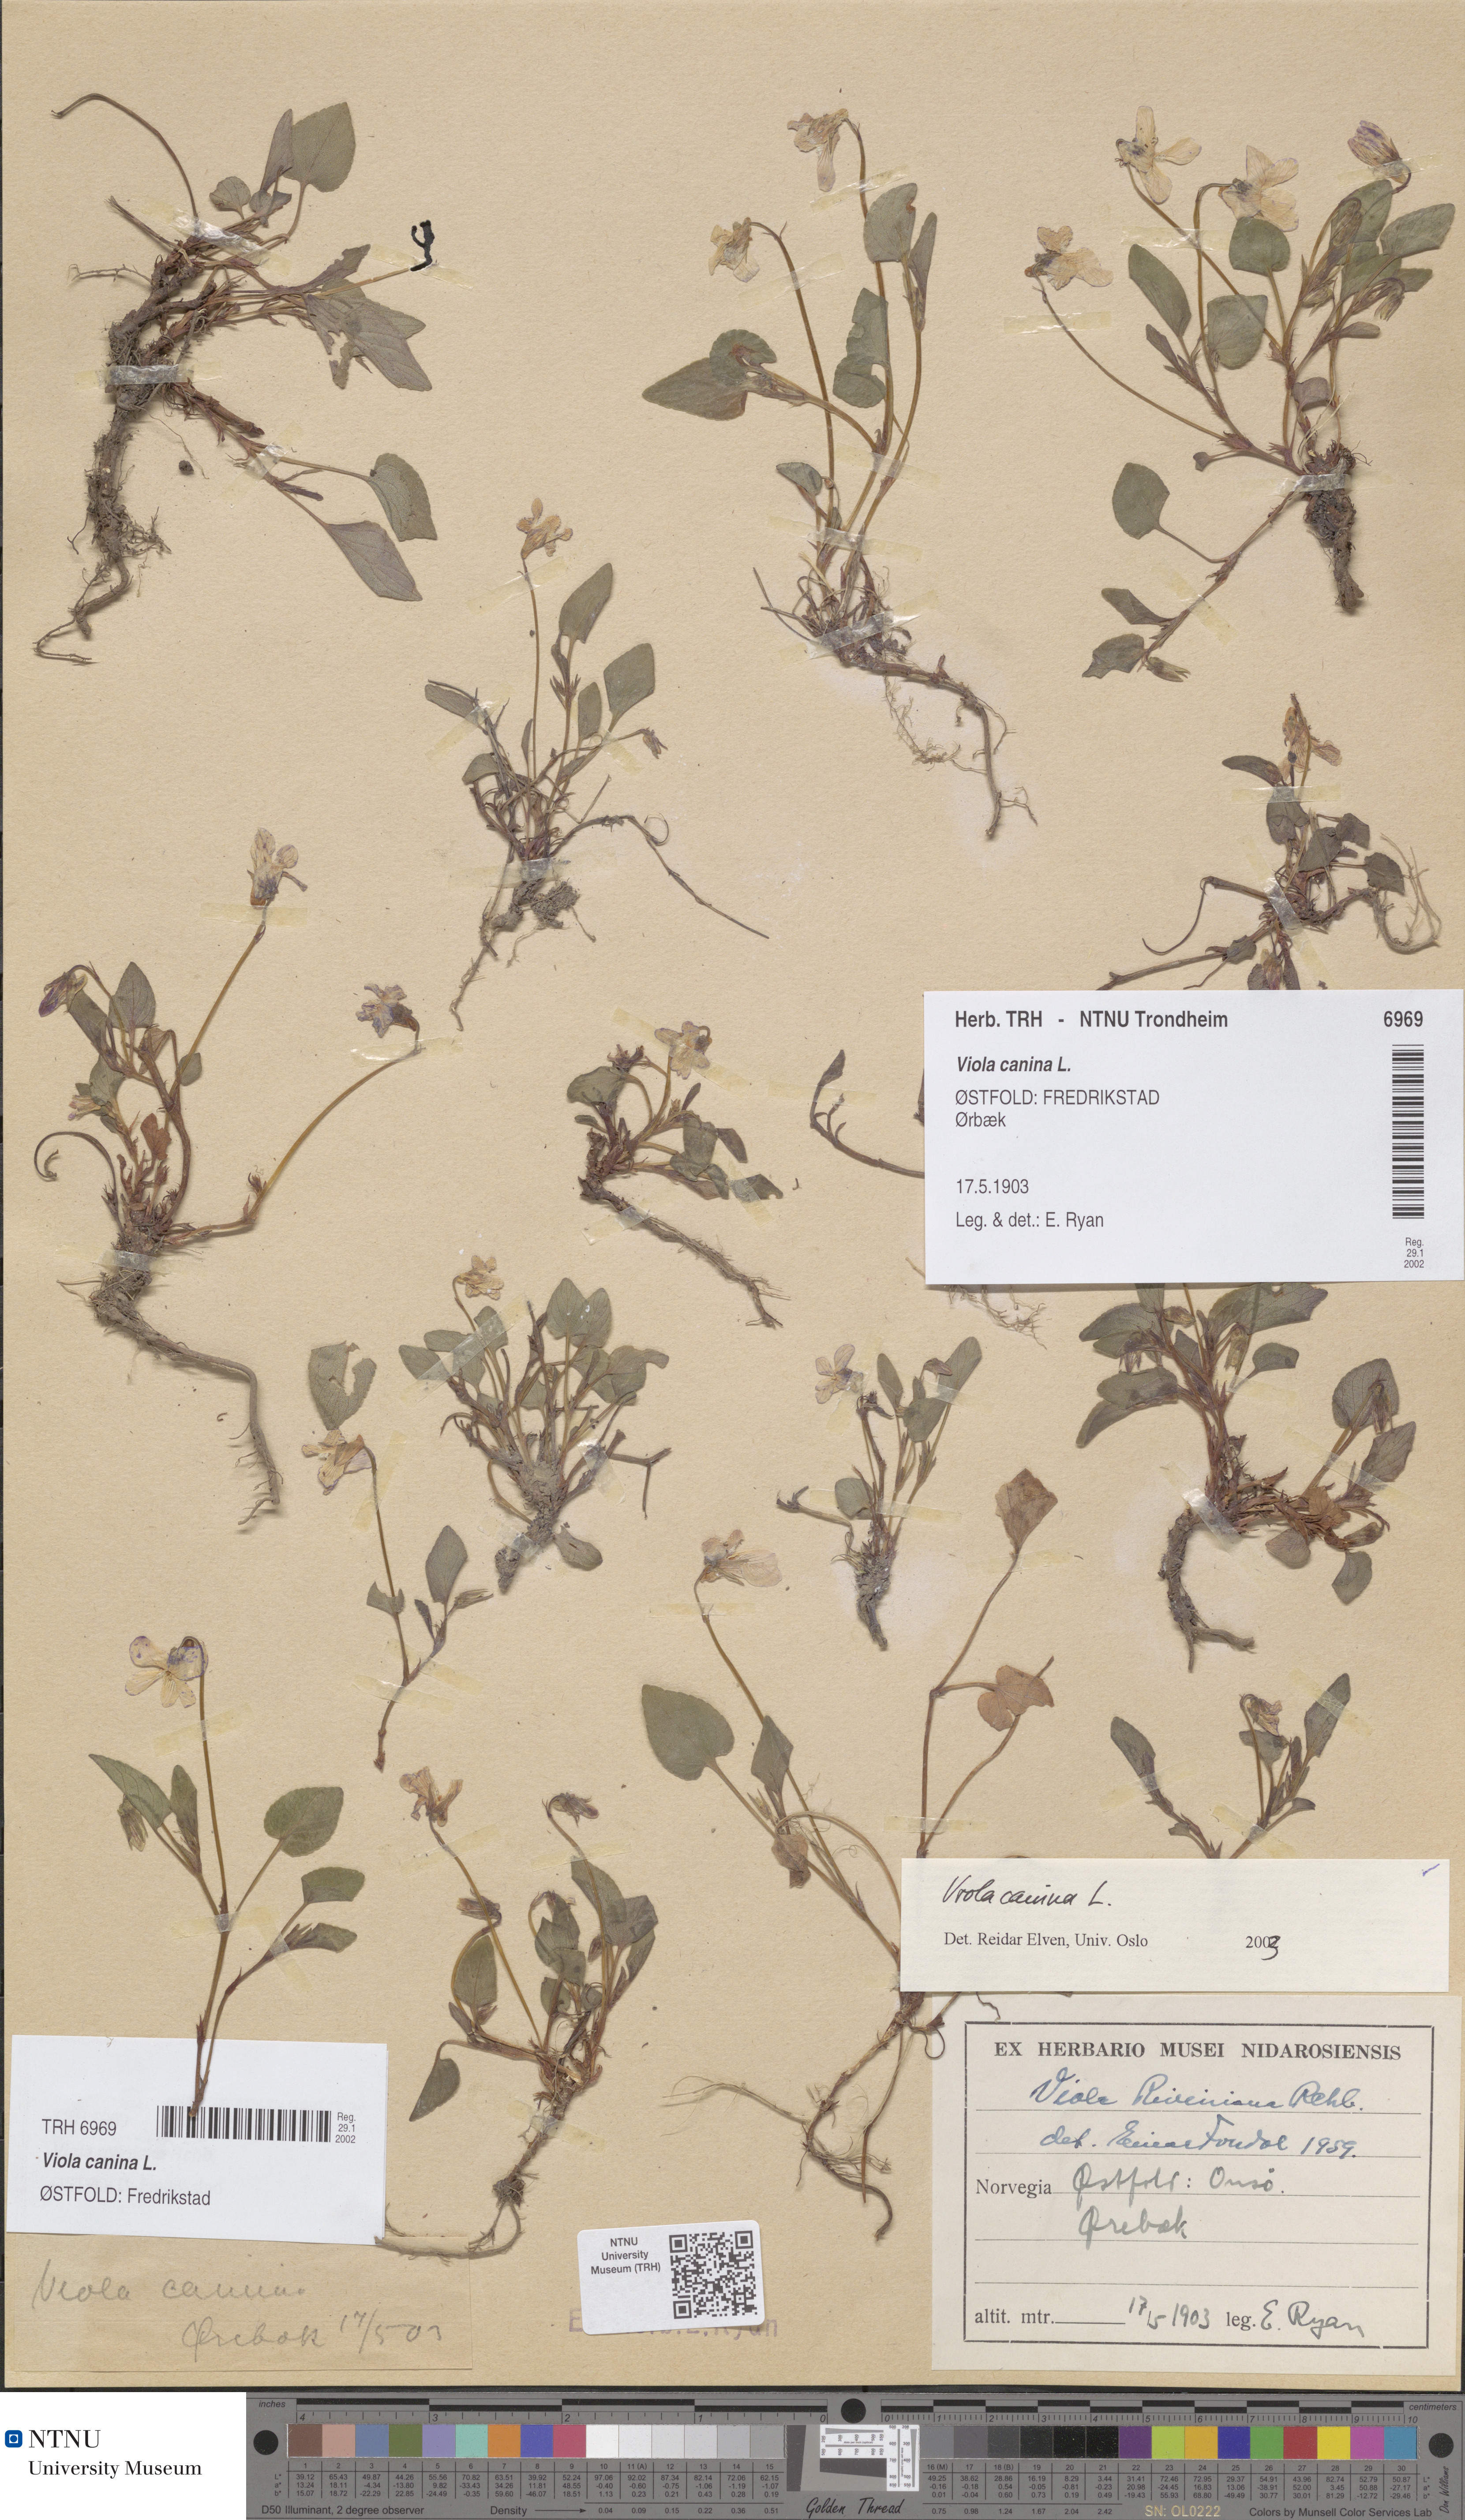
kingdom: Plantae
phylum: Tracheophyta
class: Magnoliopsida
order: Malpighiales
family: Violaceae
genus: Viola
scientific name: Viola canina
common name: Heath dog-violet
